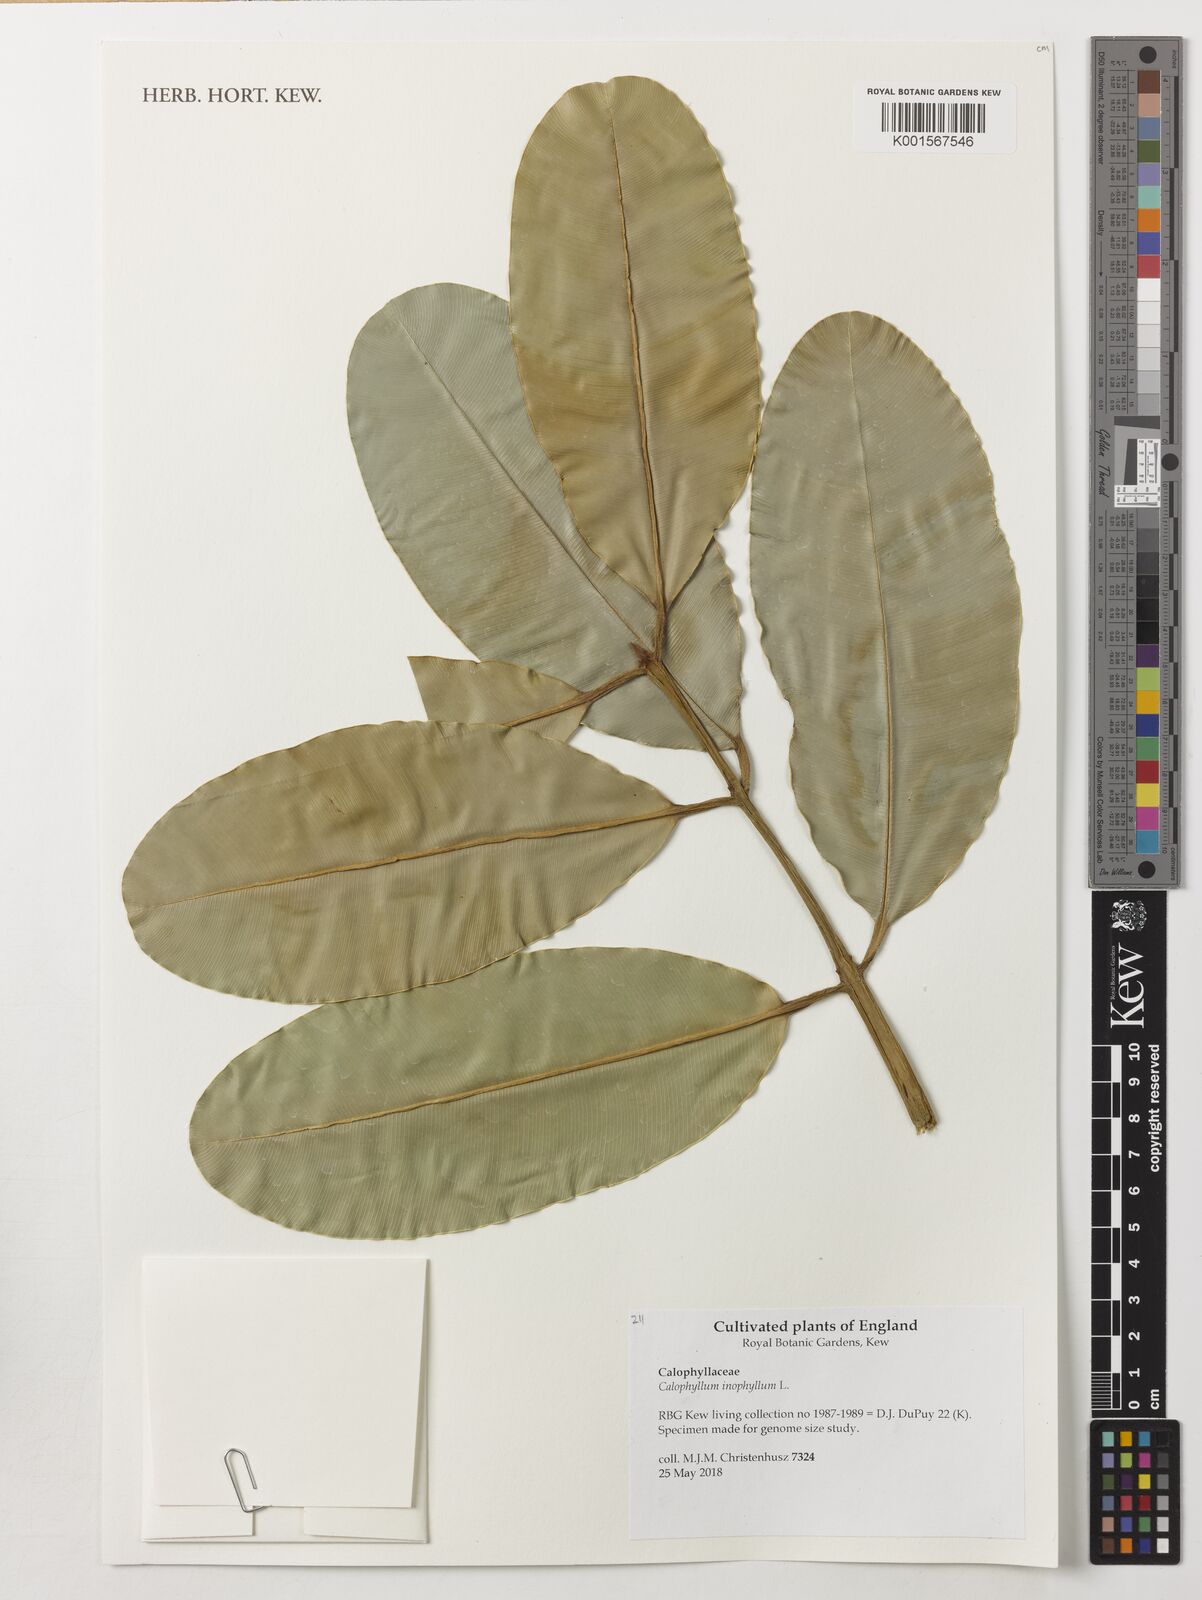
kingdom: Plantae
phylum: Tracheophyta
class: Magnoliopsida
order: Malpighiales
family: Calophyllaceae
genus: Calophyllum
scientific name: Calophyllum inophyllum
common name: Alexandrian laurel
